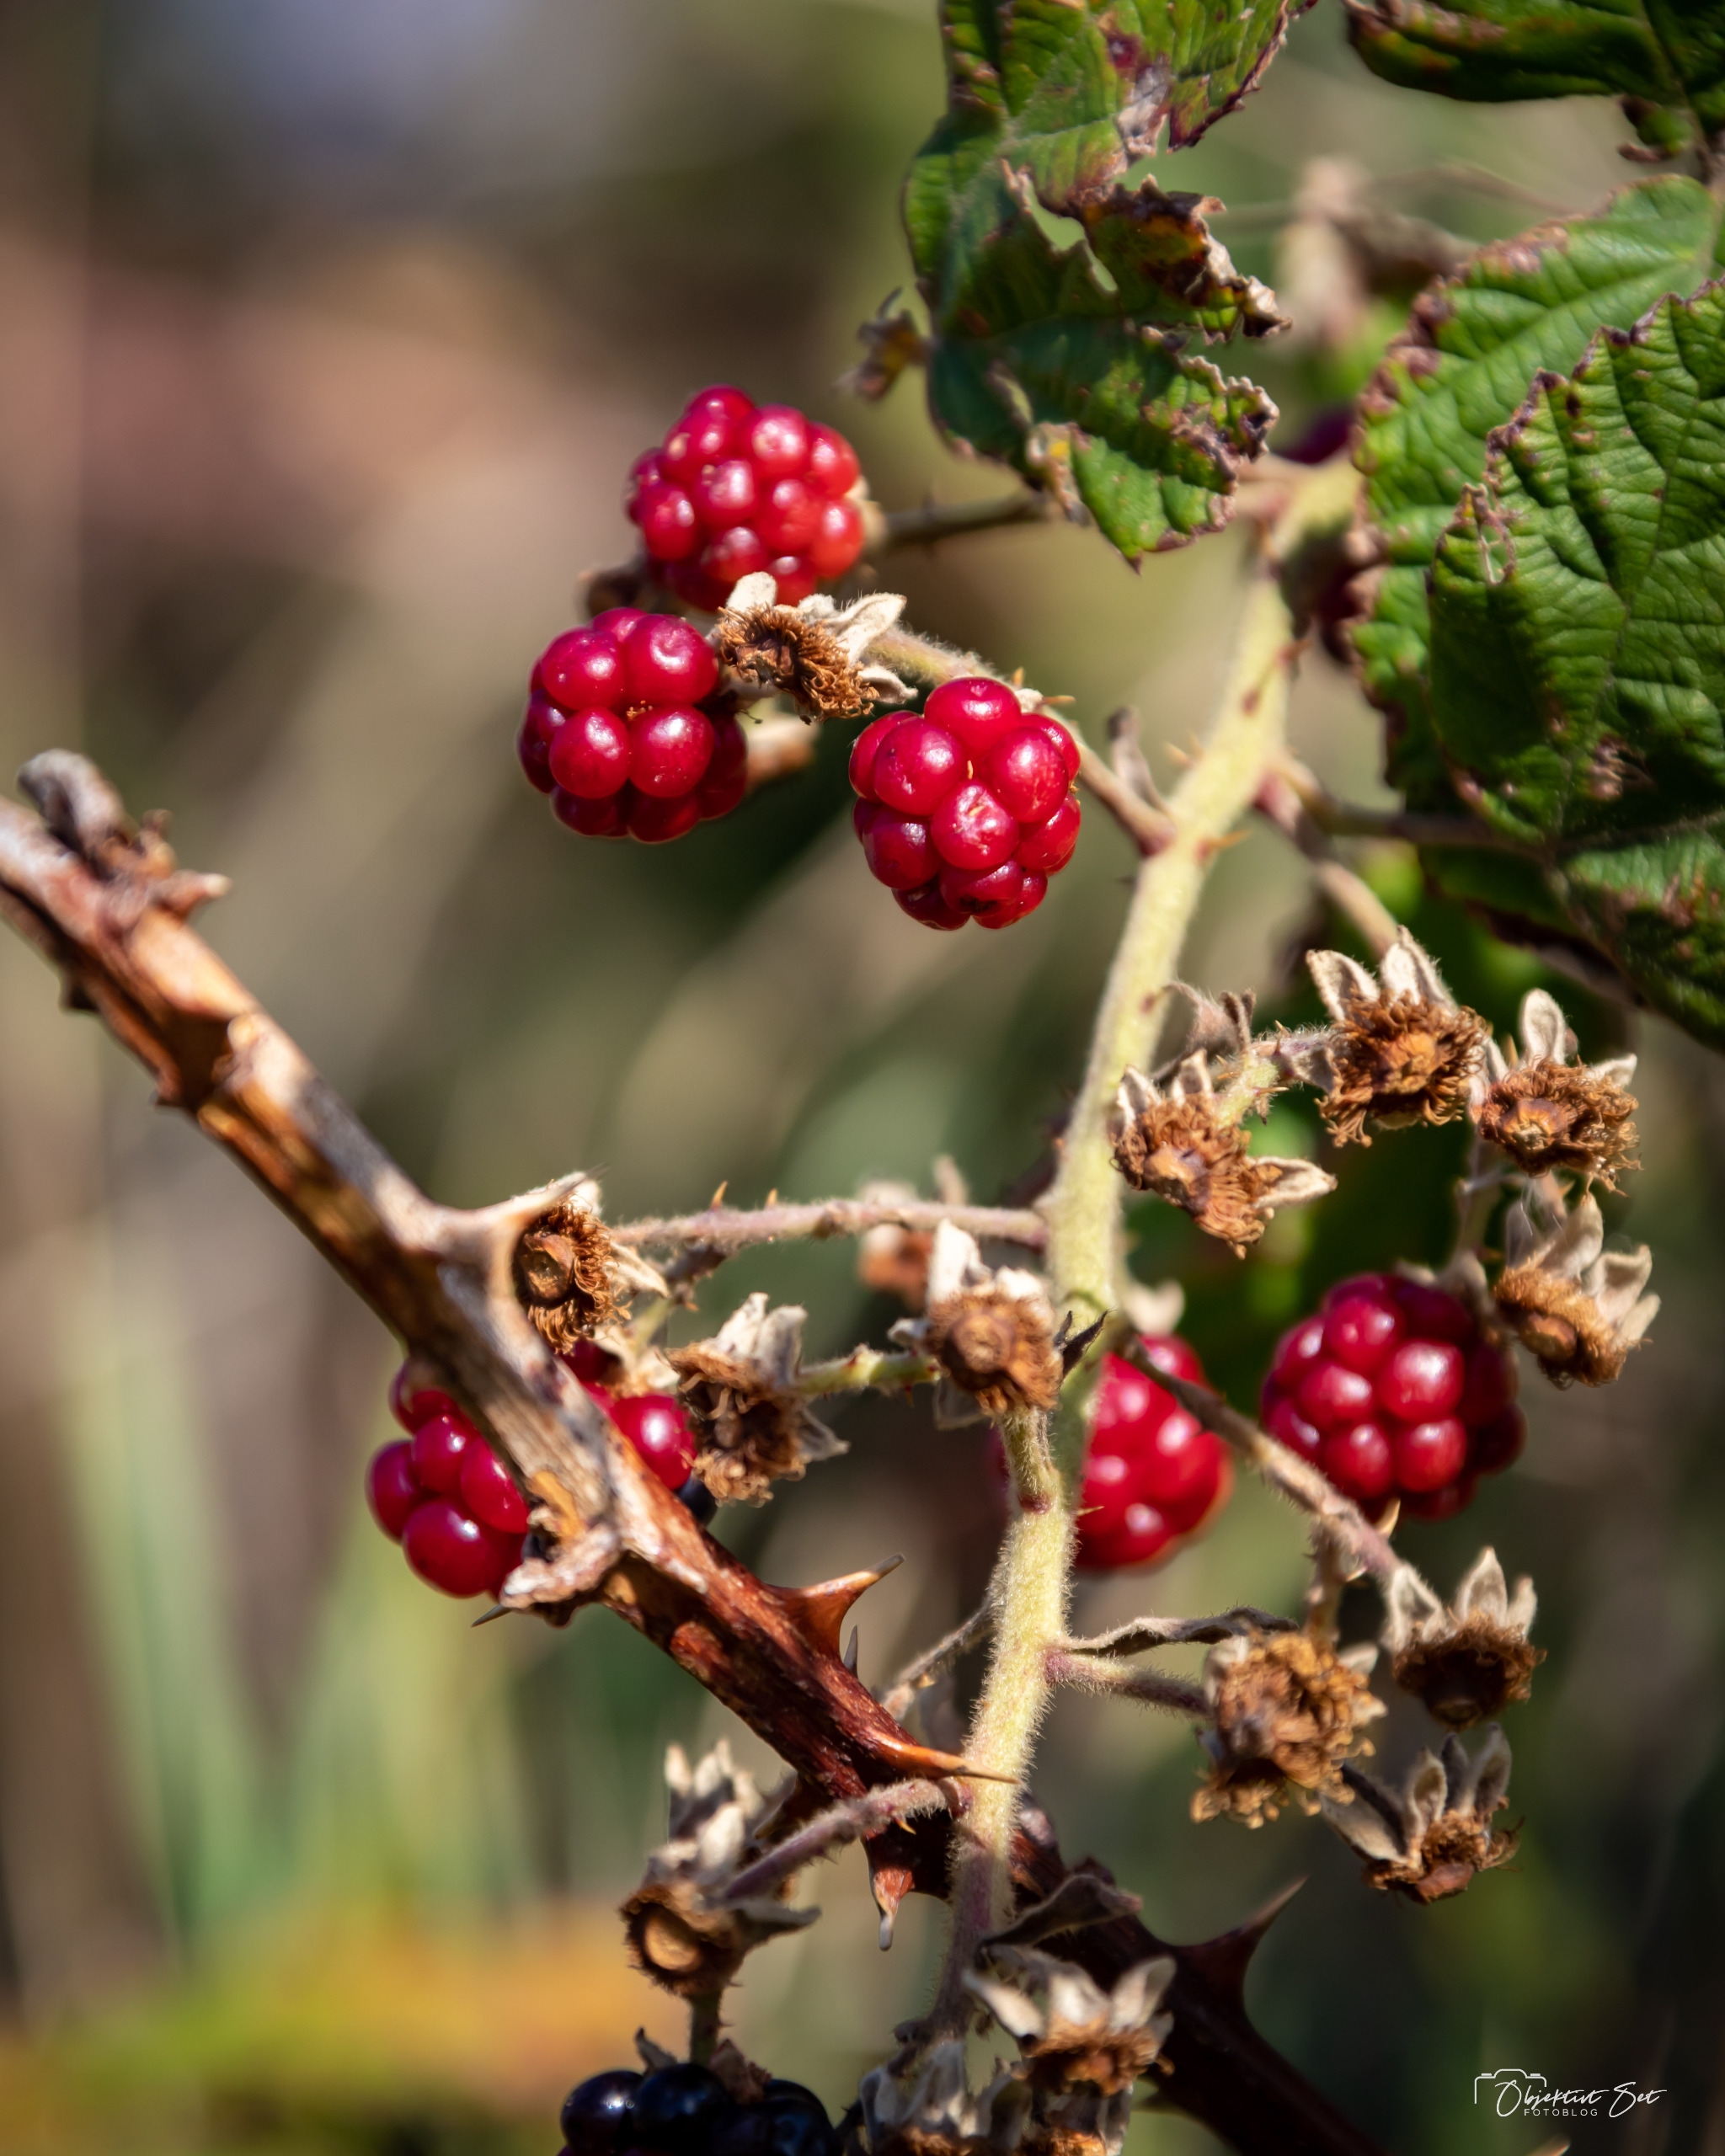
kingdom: Plantae
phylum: Tracheophyta
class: Magnoliopsida
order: Rosales
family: Rosaceae
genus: Rubus
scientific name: Rubus
